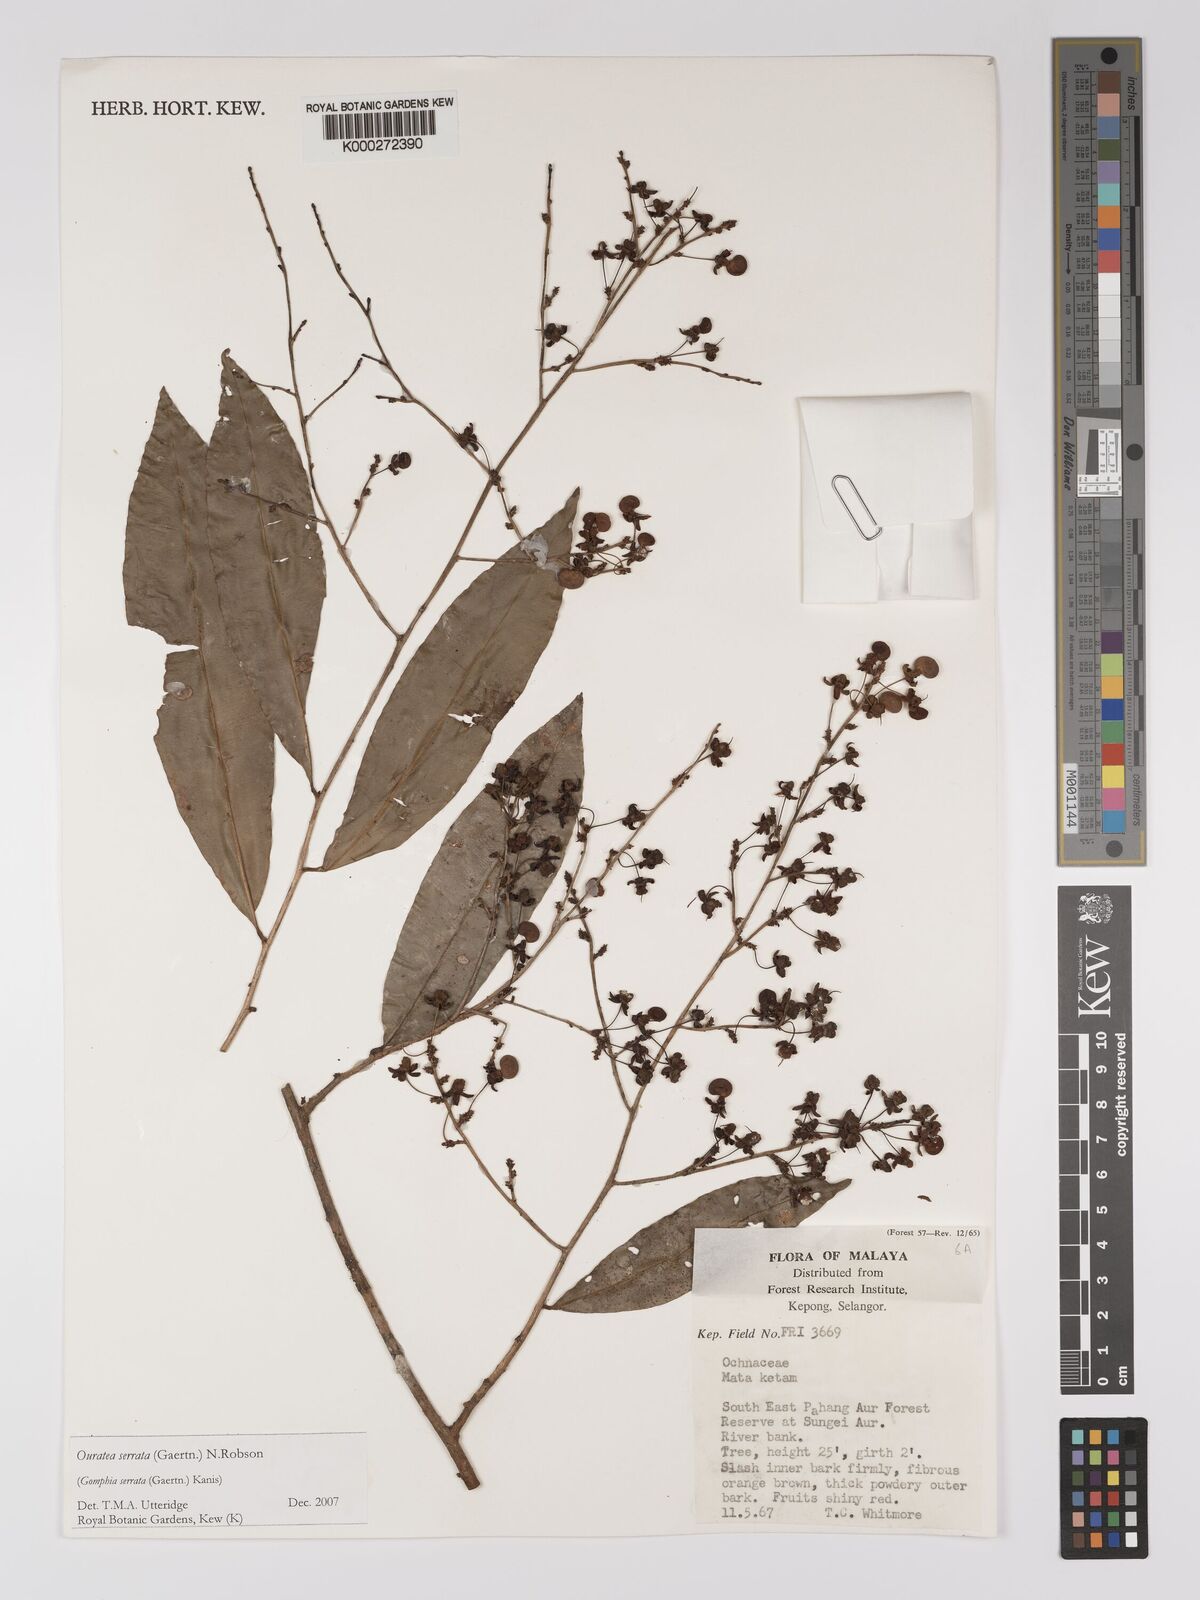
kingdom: Plantae
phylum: Tracheophyta
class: Magnoliopsida
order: Malpighiales
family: Ochnaceae
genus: Gomphia
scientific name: Gomphia serrata
